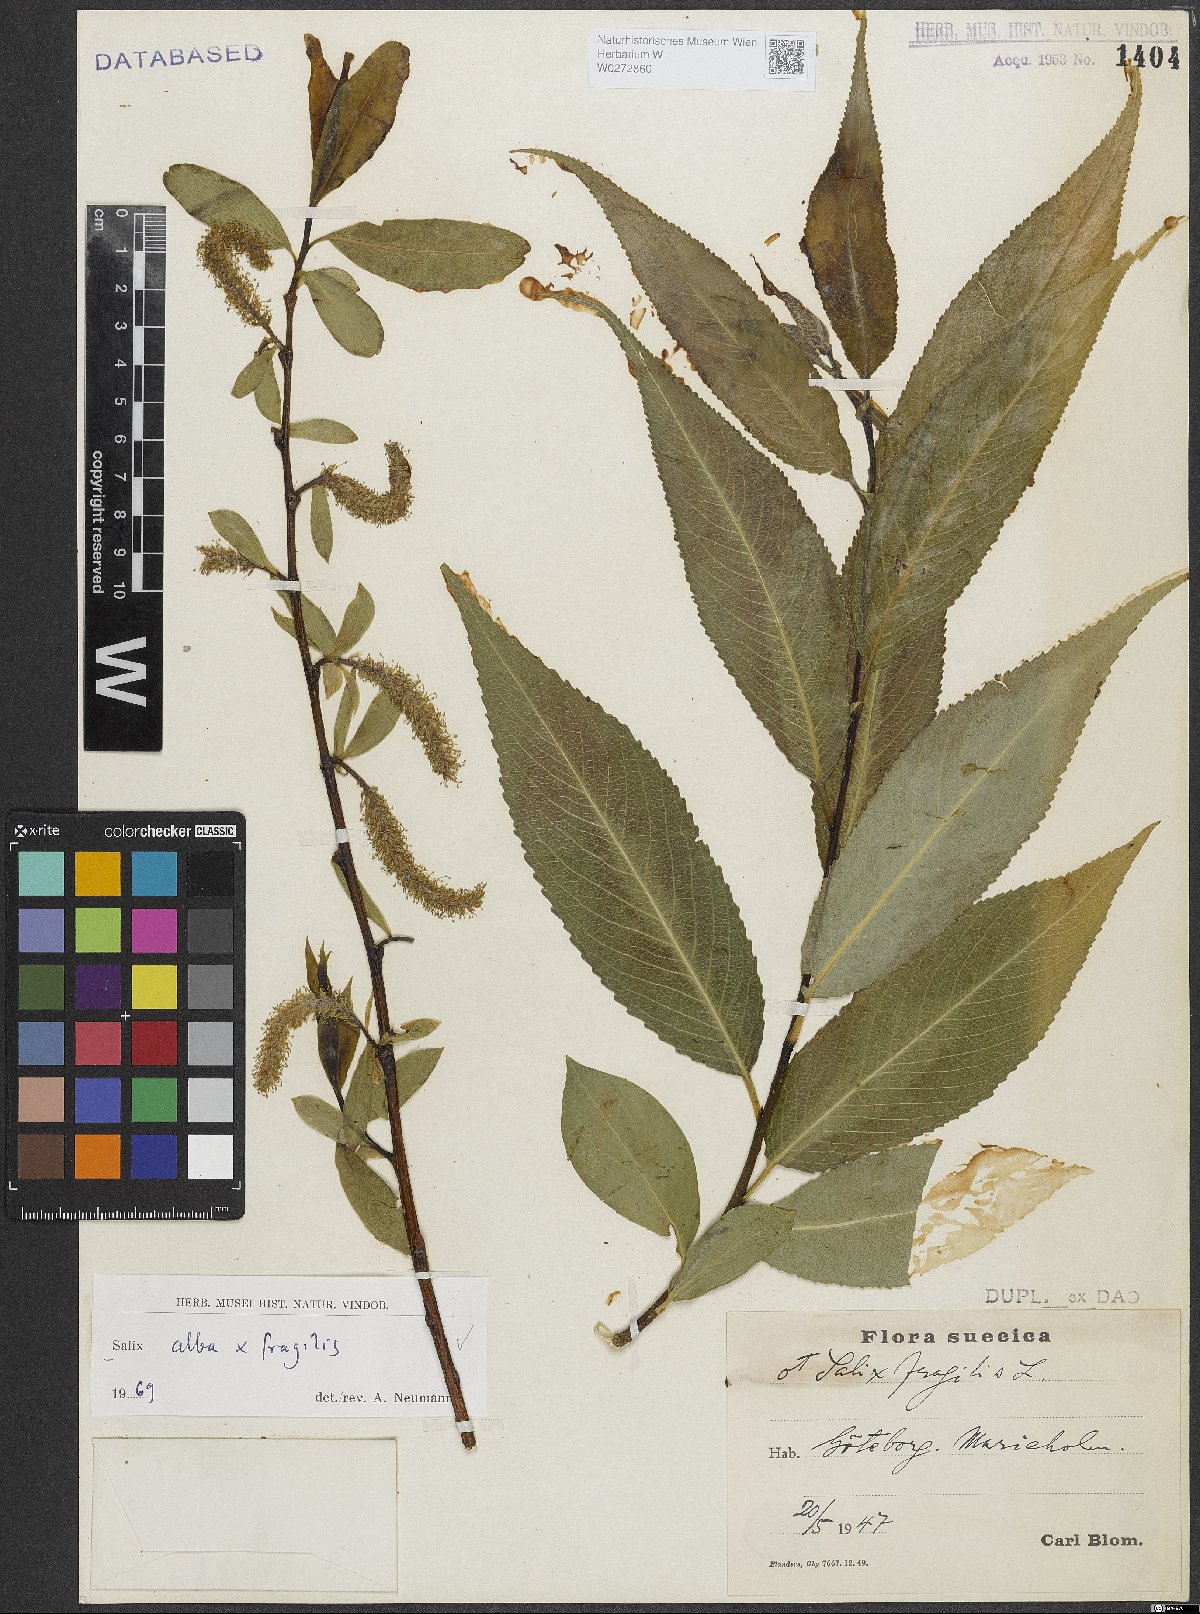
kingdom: Plantae
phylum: Tracheophyta
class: Magnoliopsida
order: Malpighiales
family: Salicaceae
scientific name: Salicaceae
